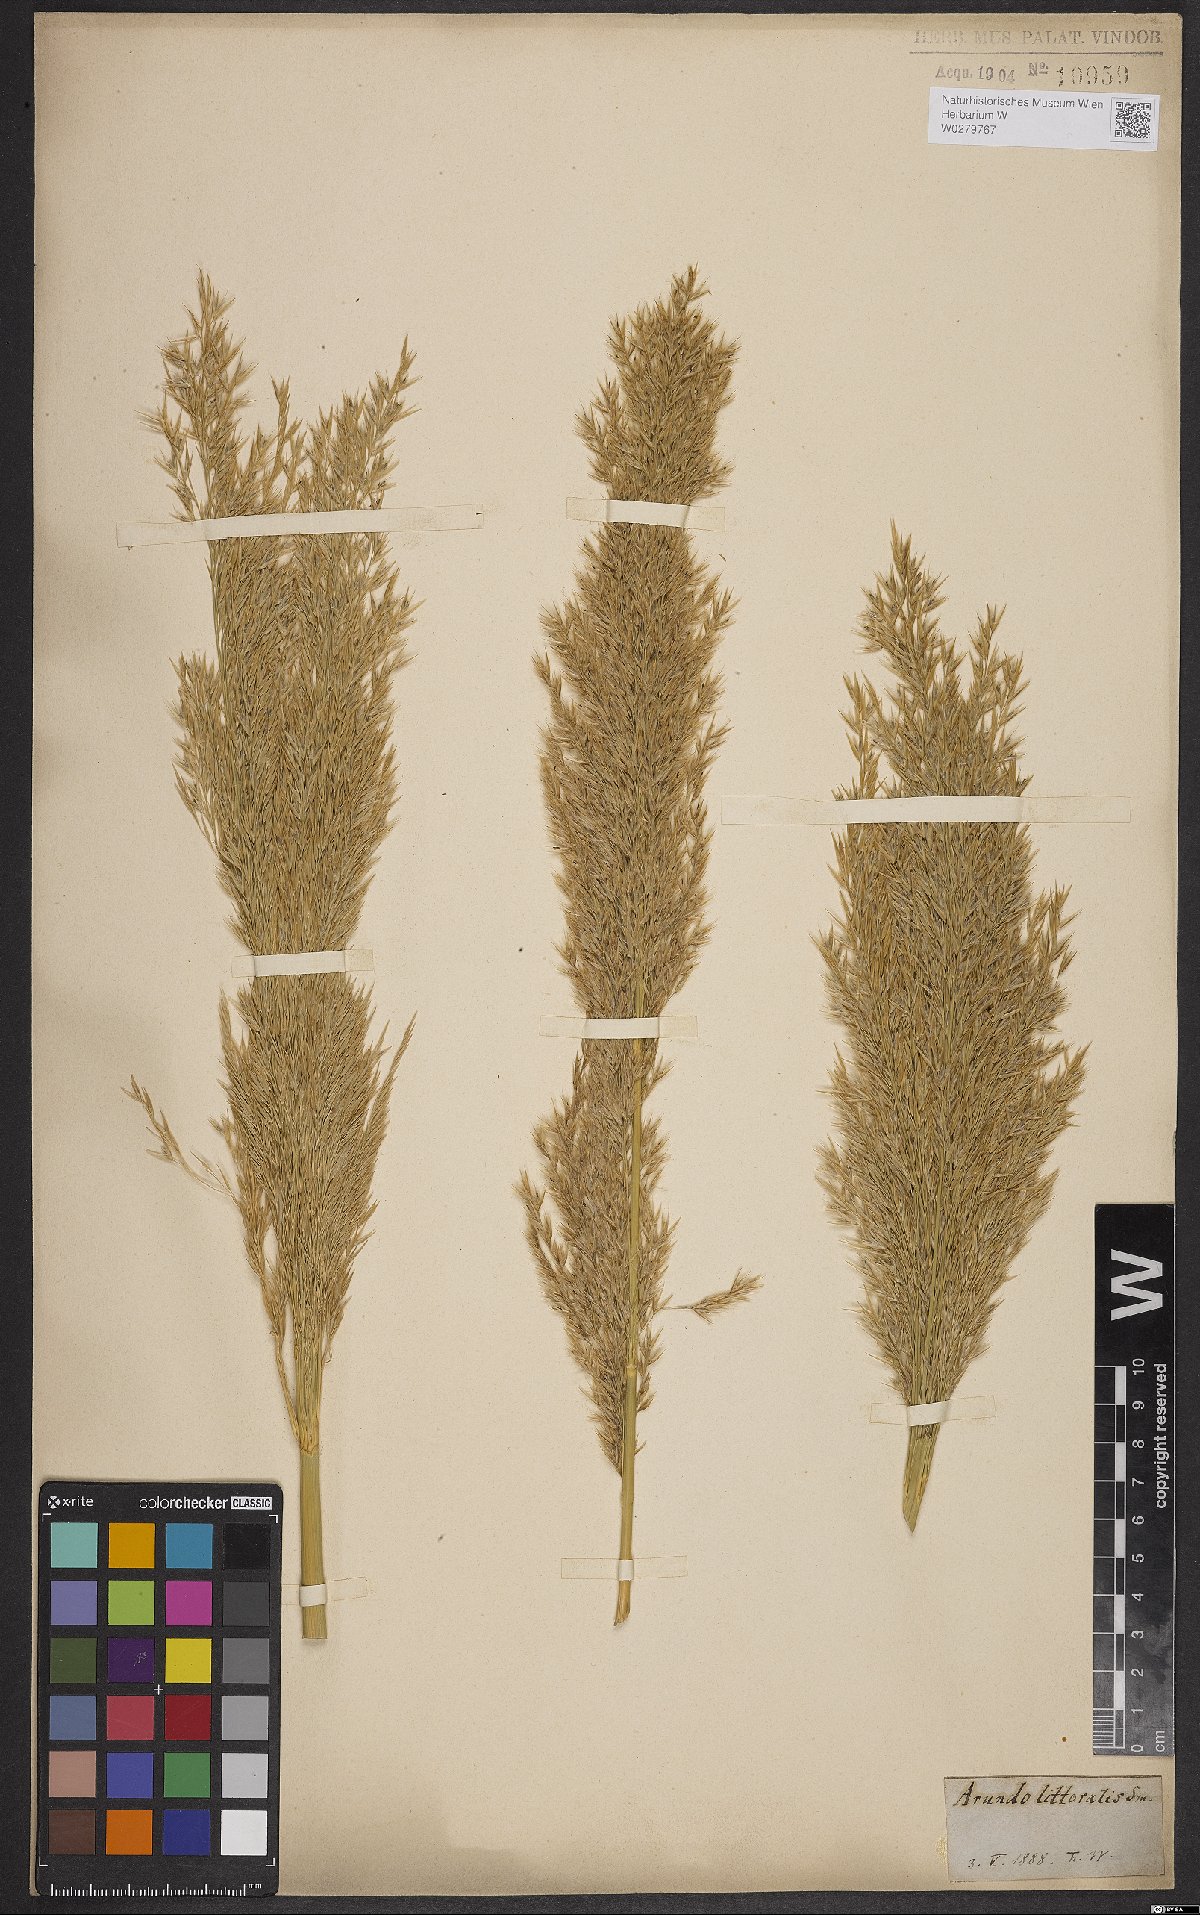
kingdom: Plantae
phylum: Tracheophyta
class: Liliopsida
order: Poales
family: Poaceae
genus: Arundinella
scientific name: Arundinella hispida
